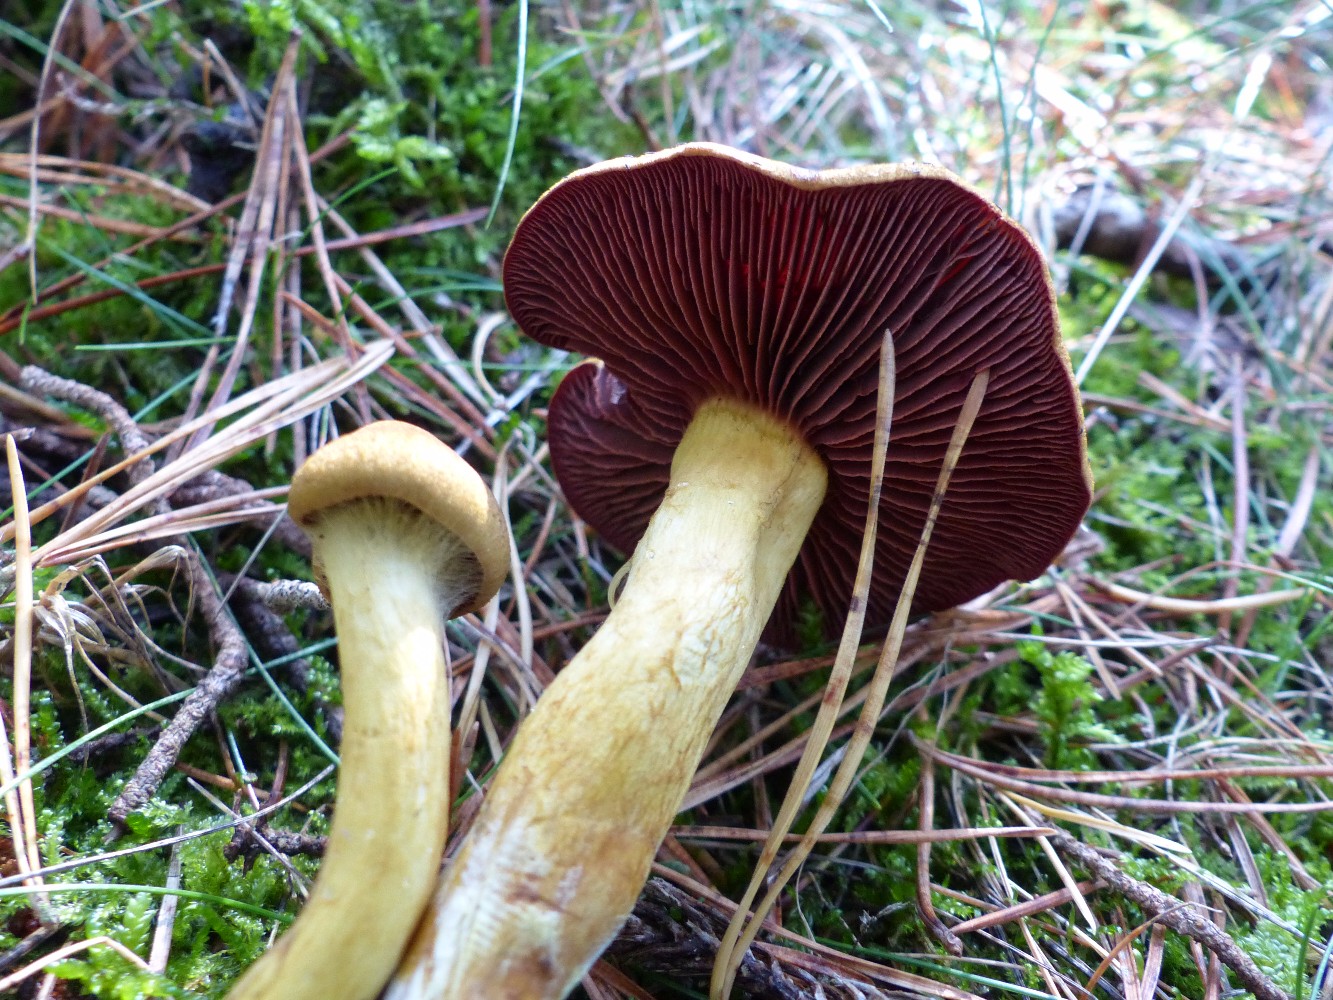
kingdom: Fungi
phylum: Basidiomycota
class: Agaricomycetes
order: Agaricales
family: Cortinariaceae
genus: Cortinarius
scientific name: Cortinarius
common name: cinnoberbladet slørhat
